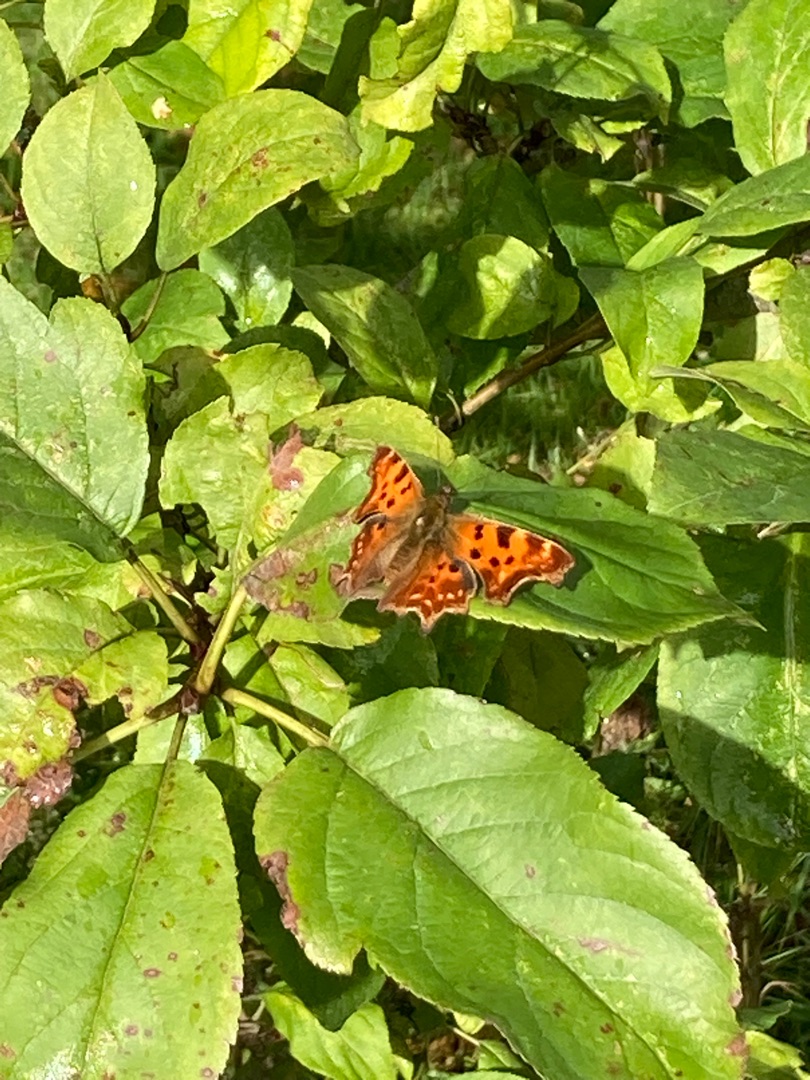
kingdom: Animalia
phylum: Arthropoda
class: Insecta
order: Lepidoptera
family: Nymphalidae
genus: Polygonia
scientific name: Polygonia c-album
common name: Det hvide C
